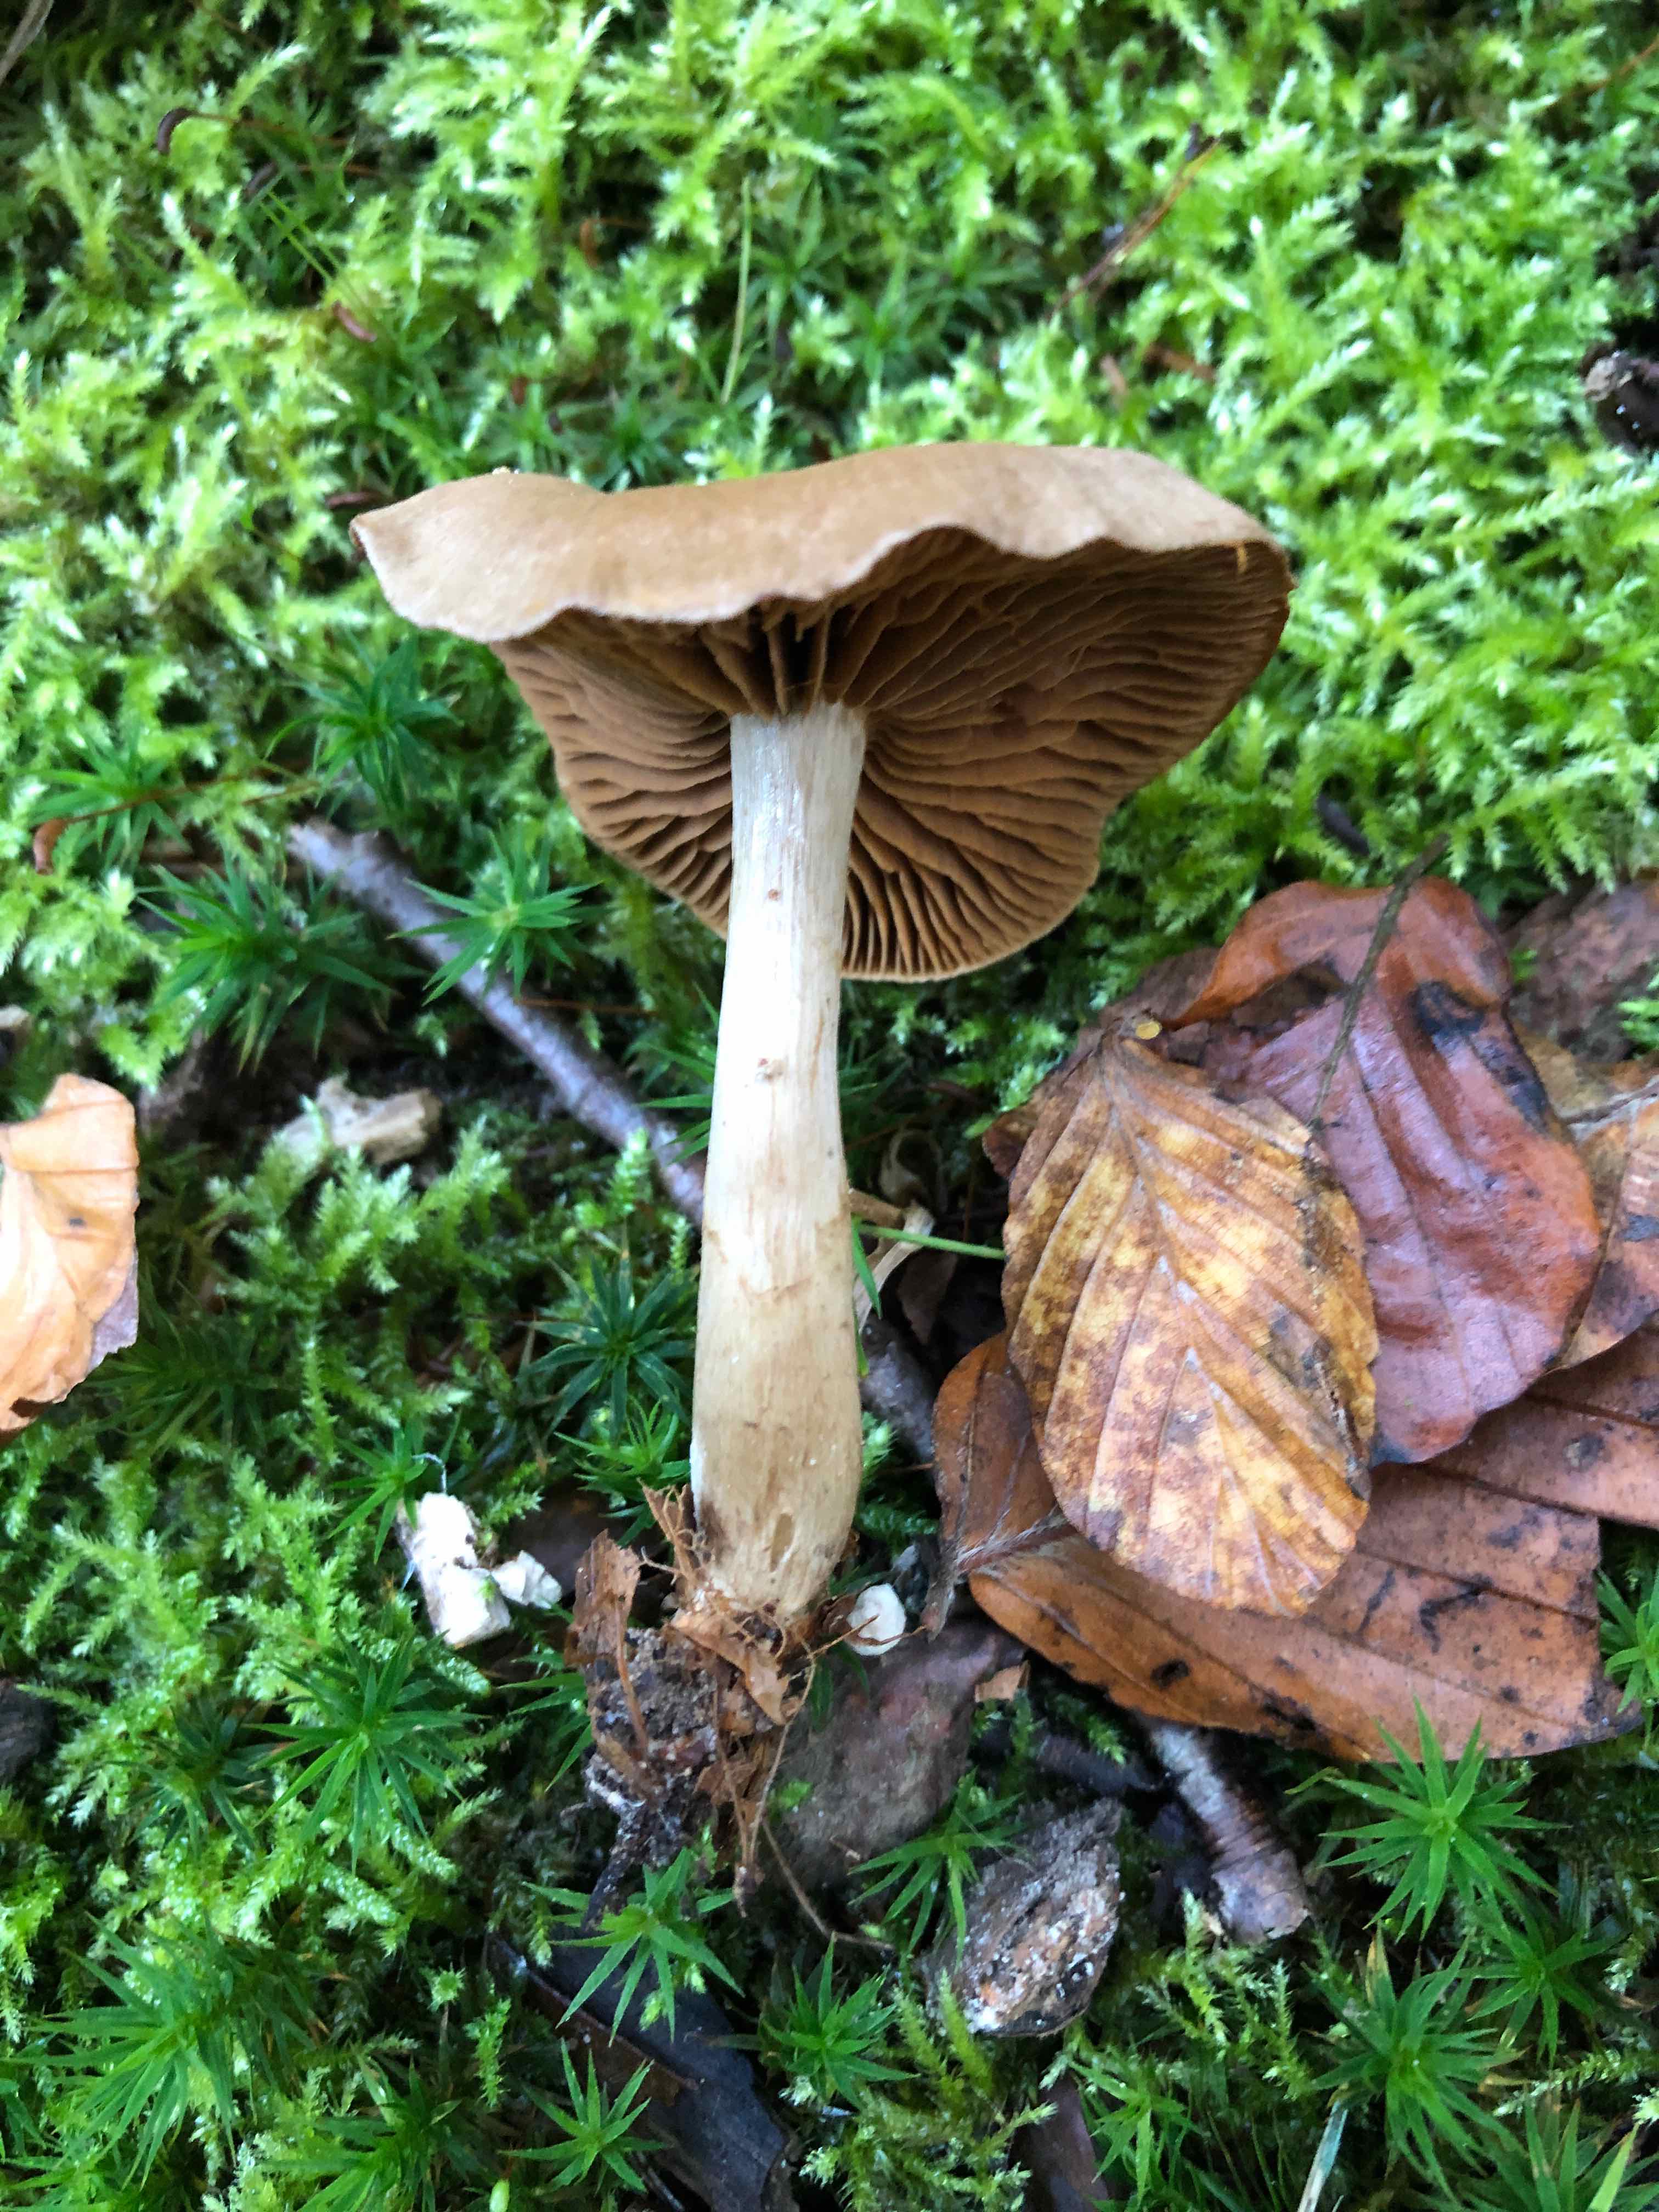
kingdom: Fungi
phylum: Basidiomycota
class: Agaricomycetes
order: Agaricales
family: Cortinariaceae
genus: Cortinarius
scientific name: Cortinarius raphanoides
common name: ræddike-slørhat
